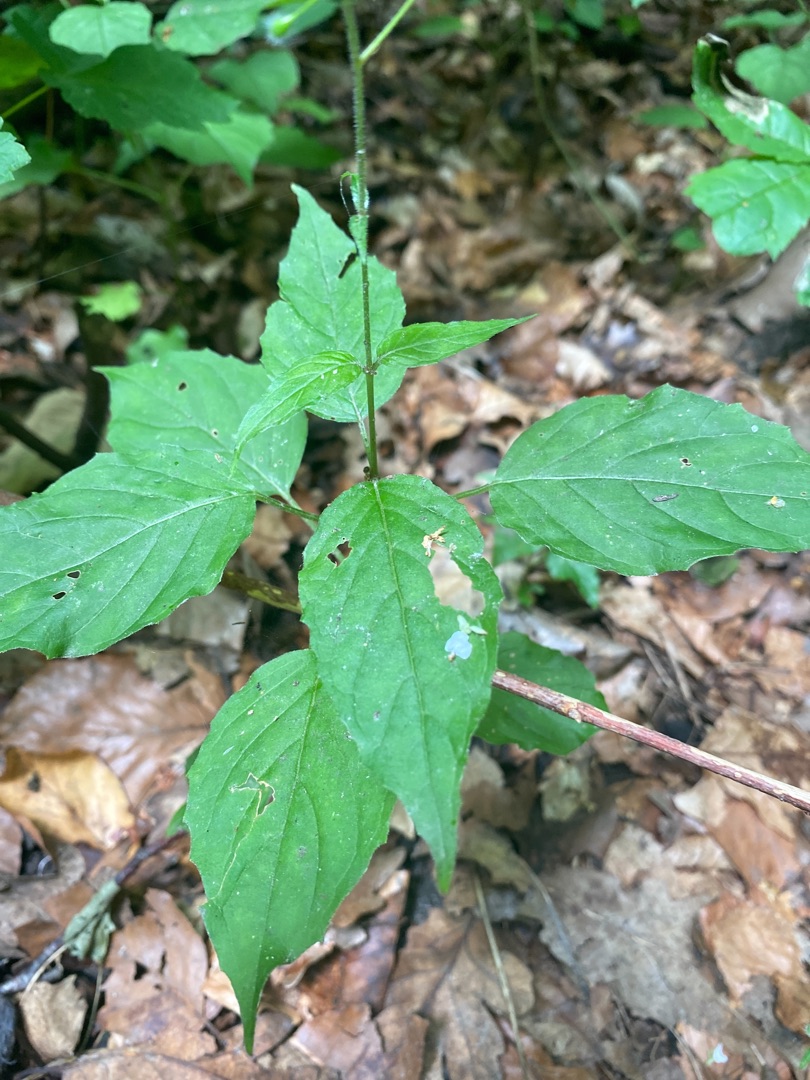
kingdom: Plantae
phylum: Tracheophyta
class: Magnoliopsida
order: Myrtales
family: Onagraceae
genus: Circaea
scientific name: Circaea lutetiana
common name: Dunet steffensurt
